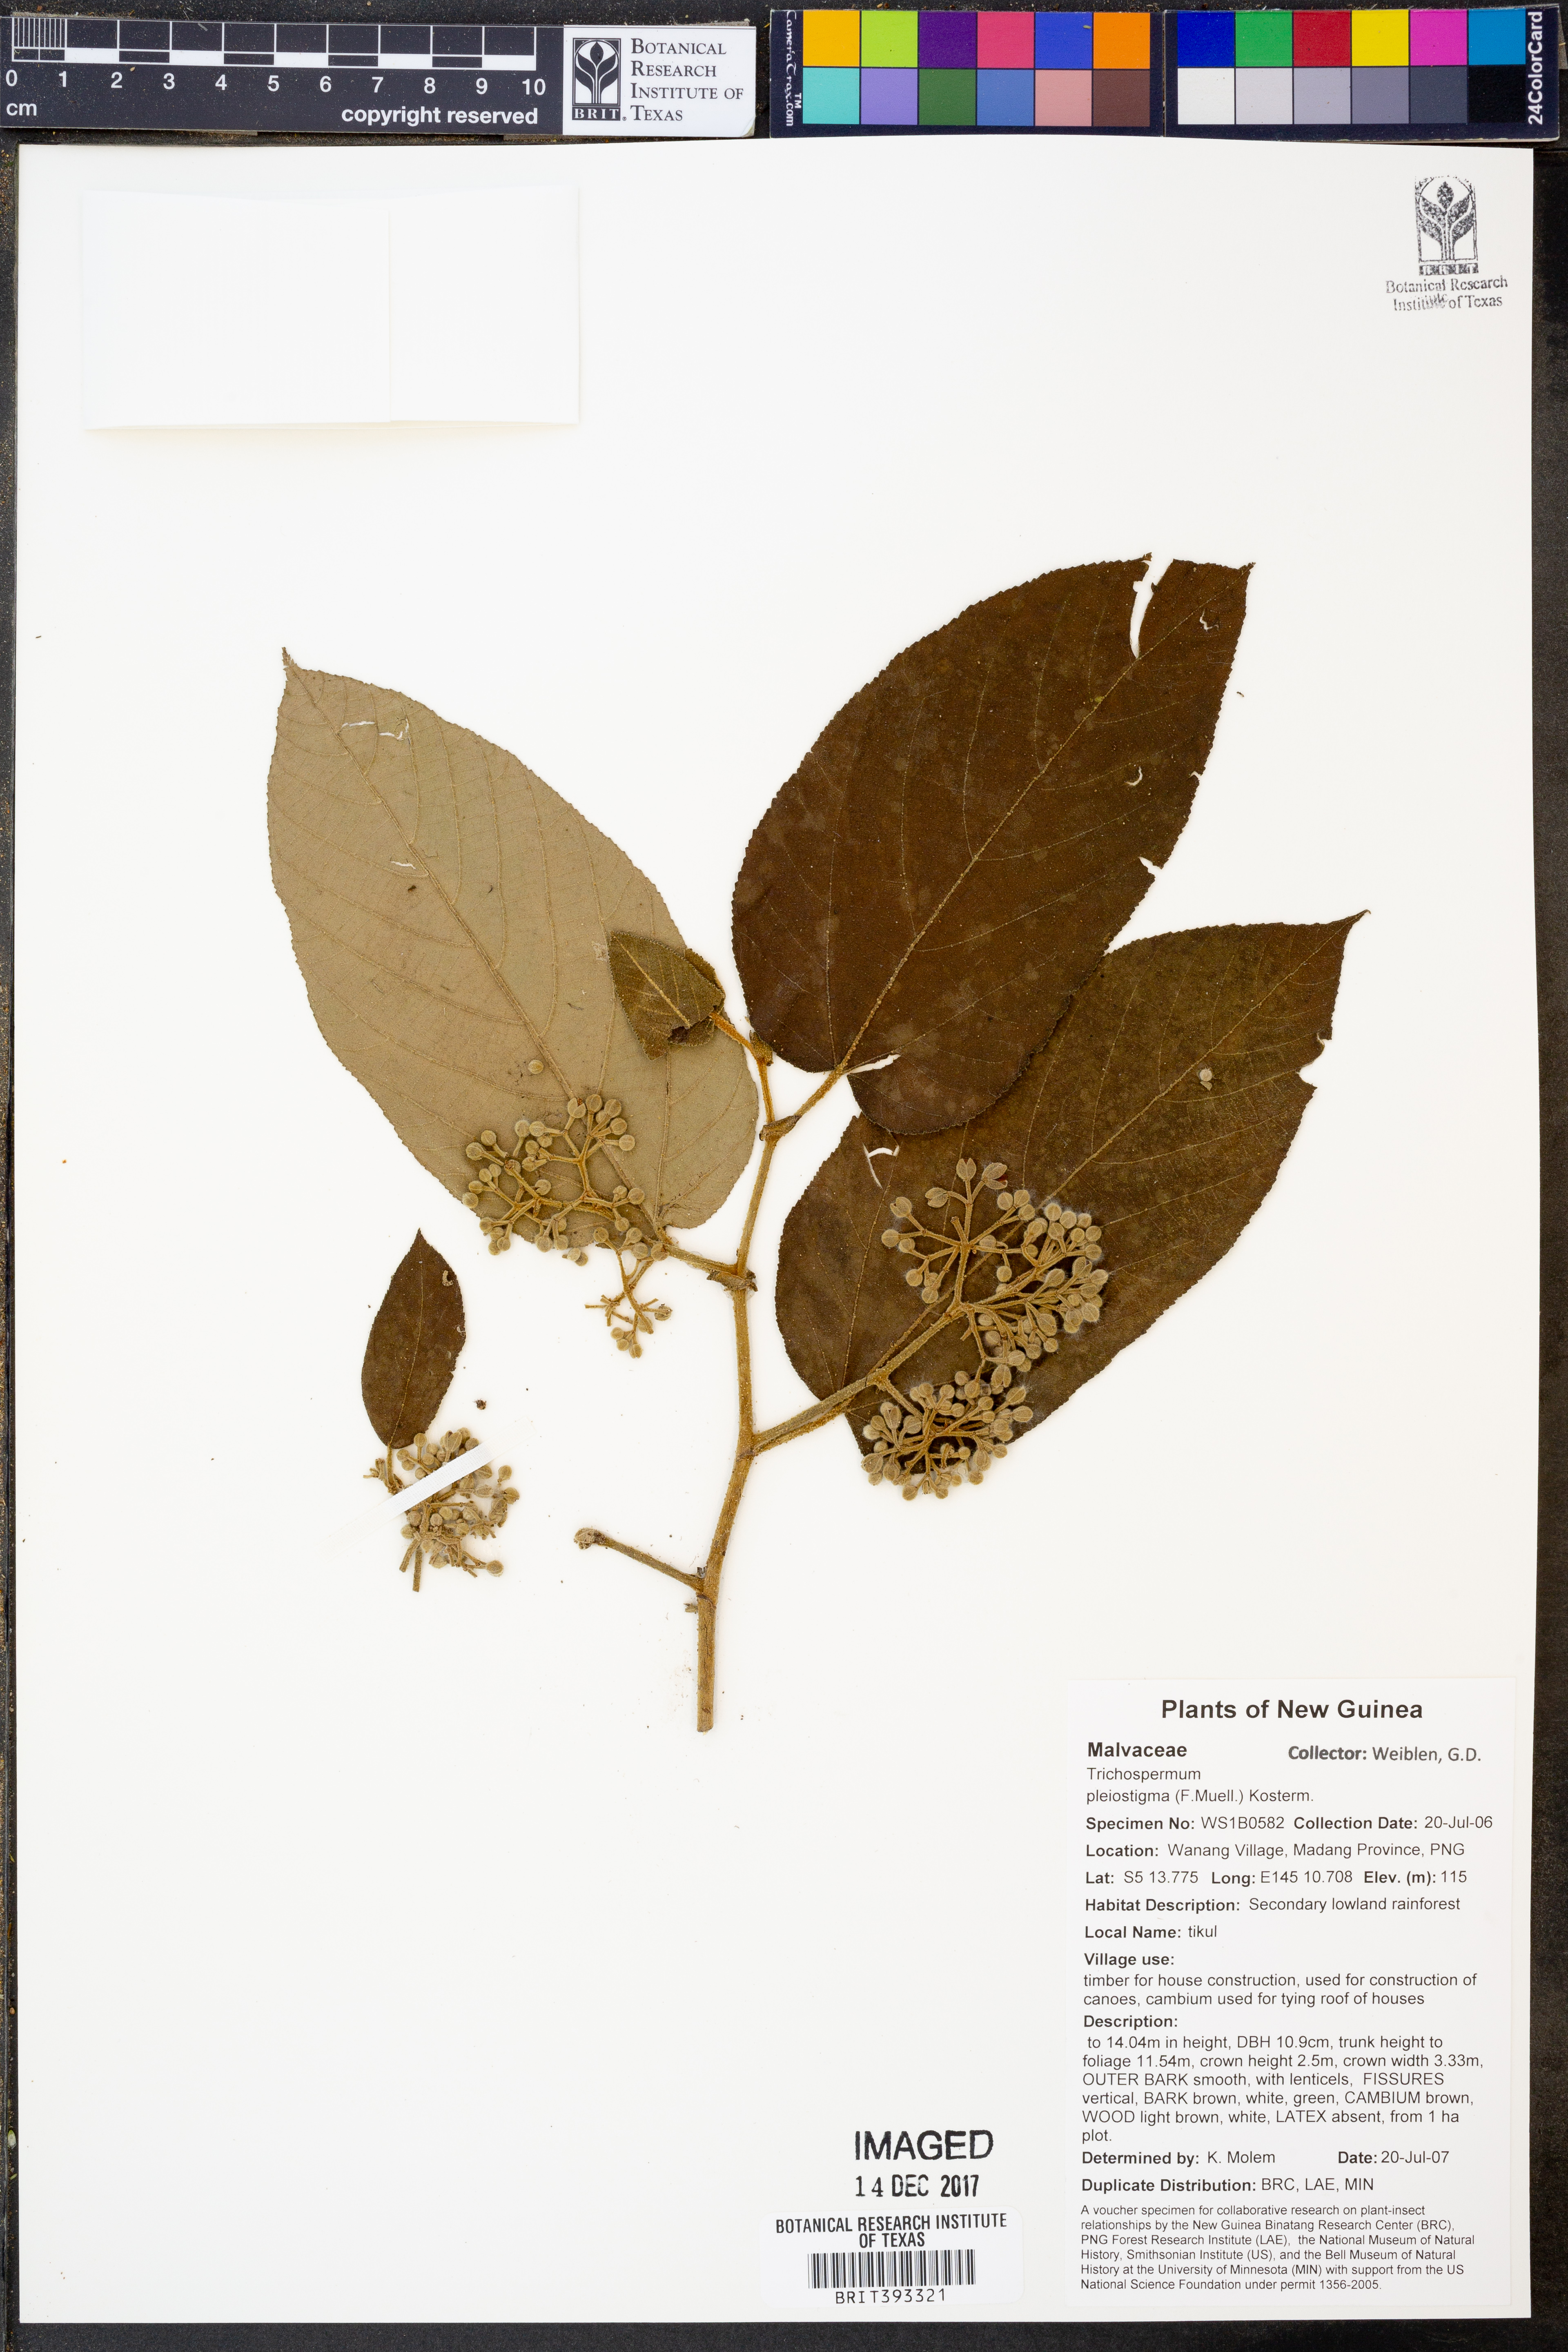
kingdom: Plantae
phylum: Tracheophyta
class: Magnoliopsida
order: Malvales
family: Malvaceae
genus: Trichospermum
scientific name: Trichospermum pleiostigma
